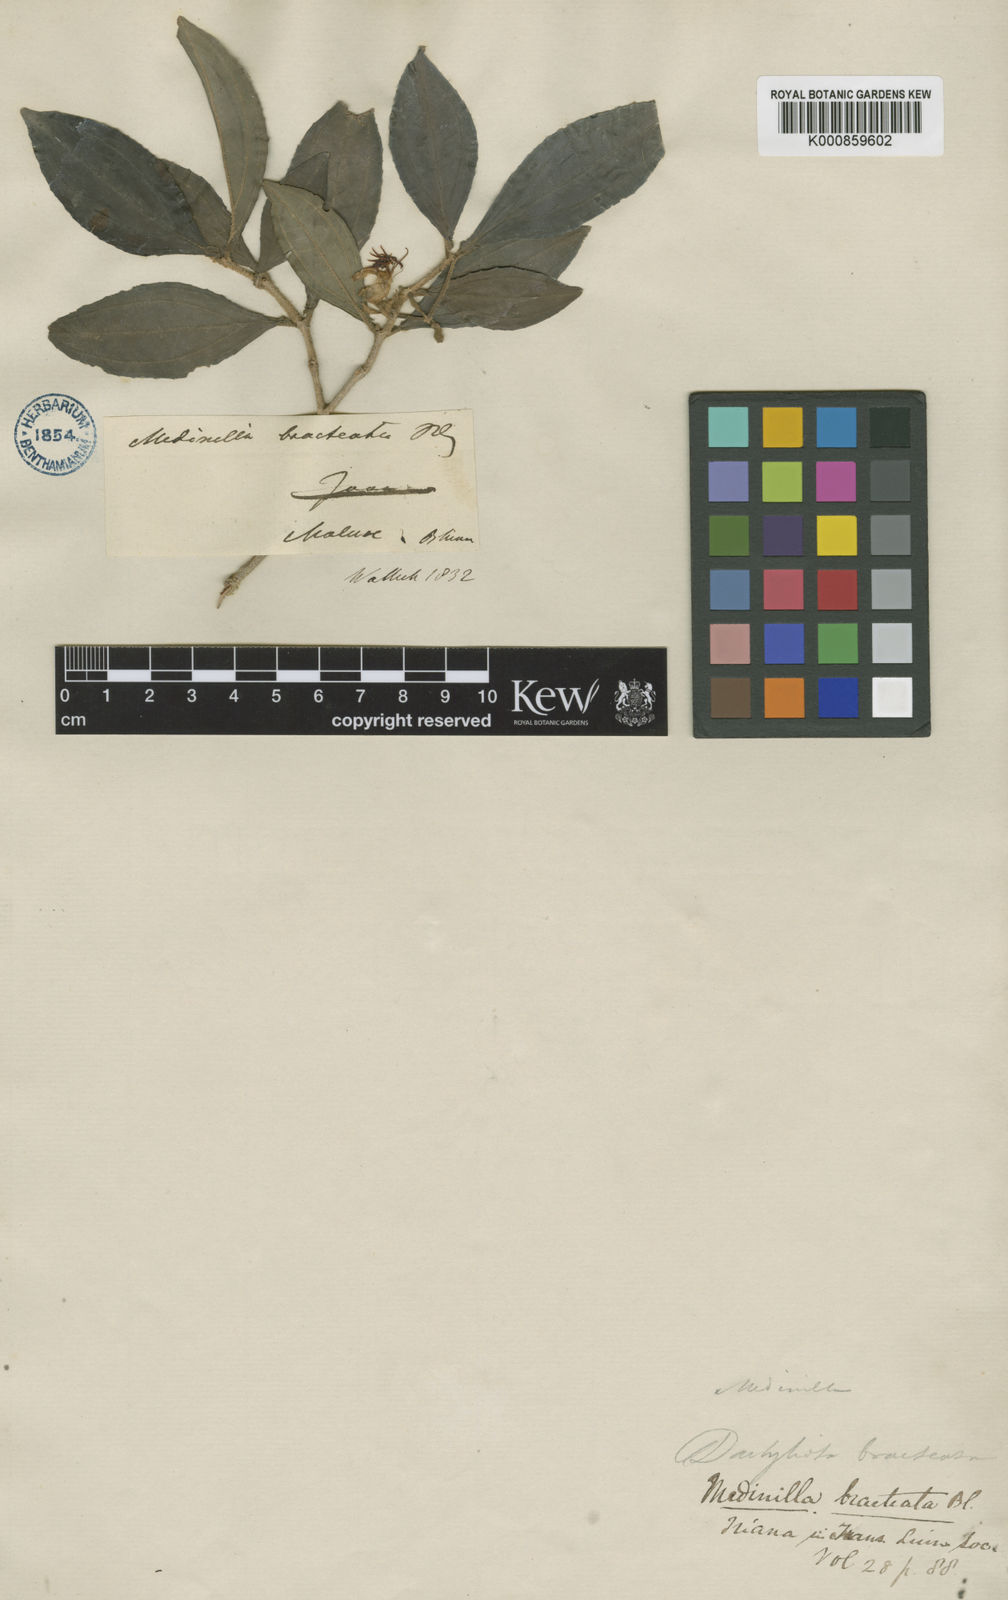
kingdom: Plantae
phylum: Tracheophyta
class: Magnoliopsida
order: Myrtales
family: Melastomataceae
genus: Medinilla
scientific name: Medinilla magnifica
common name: Showy medinilla
